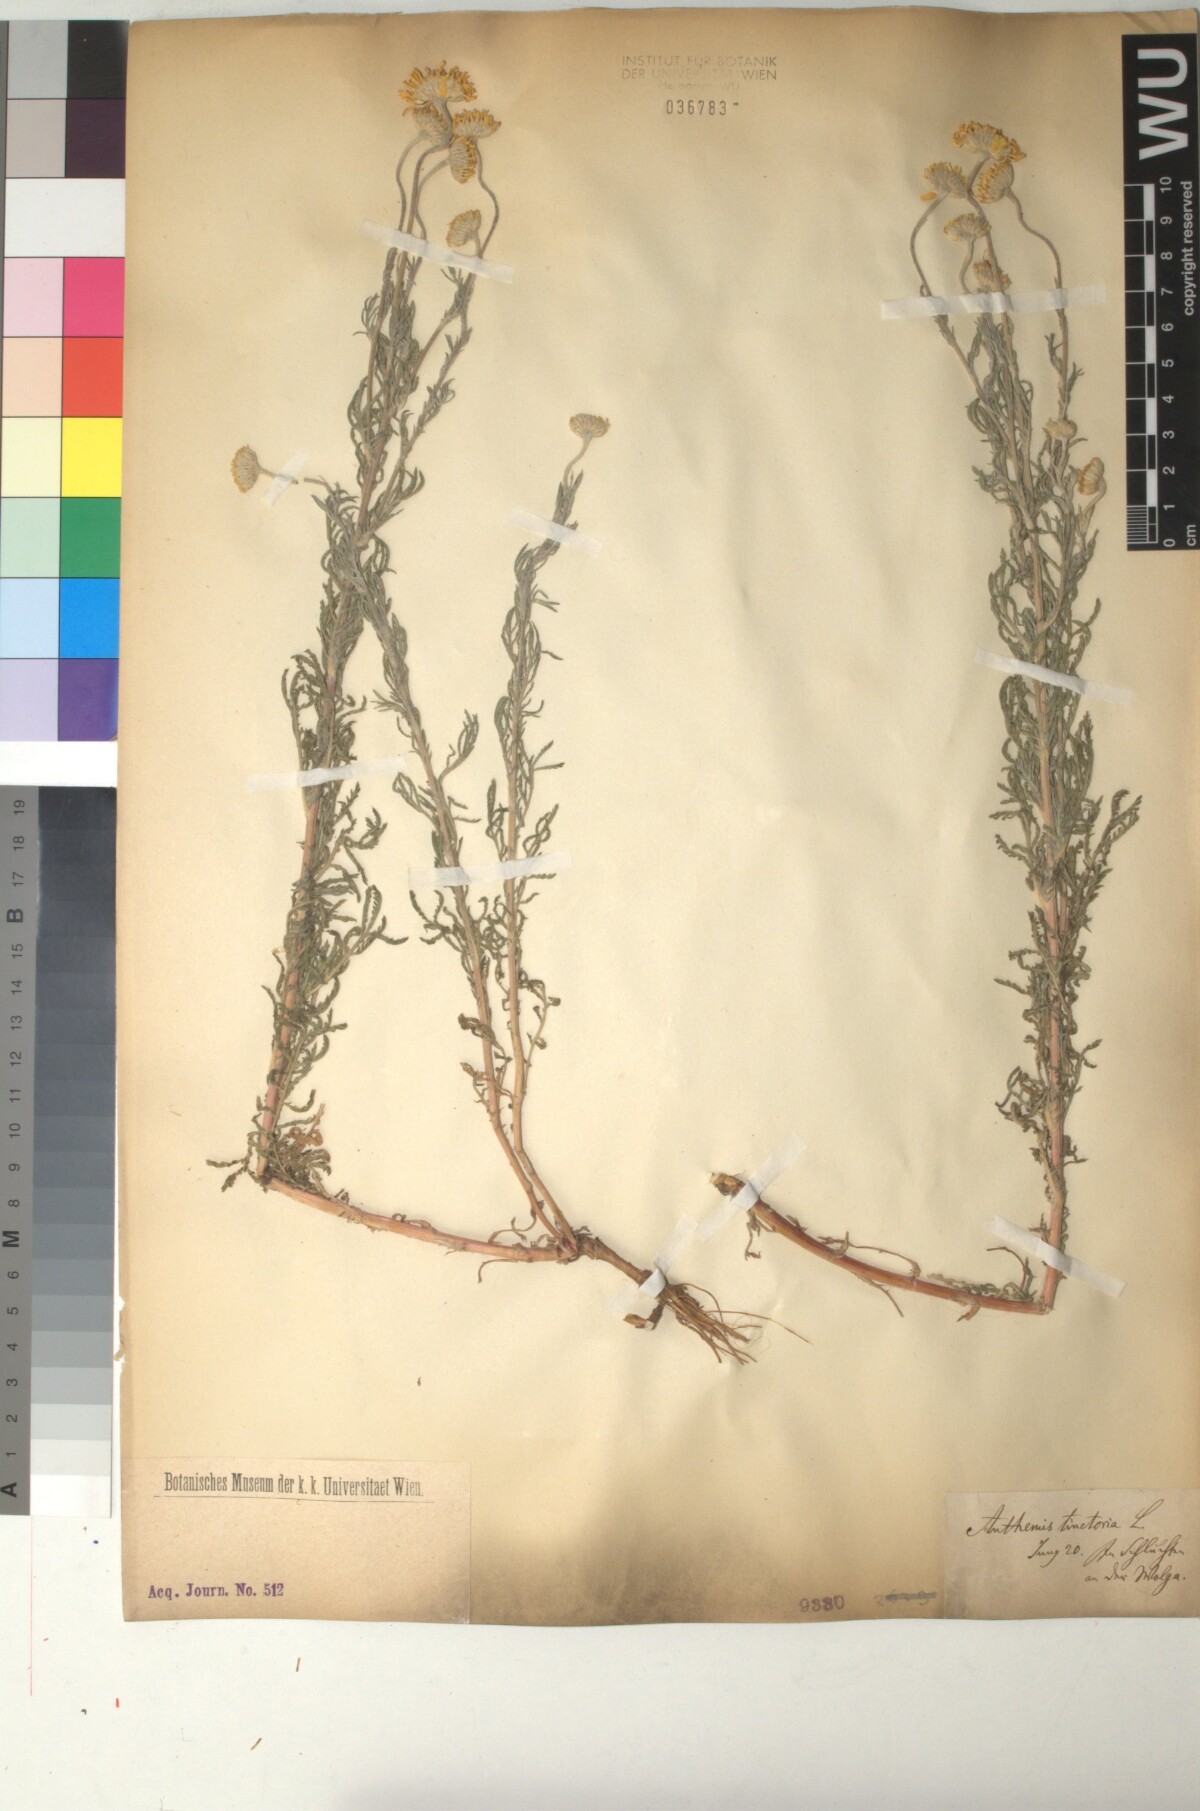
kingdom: Plantae
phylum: Tracheophyta
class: Magnoliopsida
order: Asterales
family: Asteraceae
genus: Cota
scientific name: Cota tinctoria
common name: Golden chamomile
